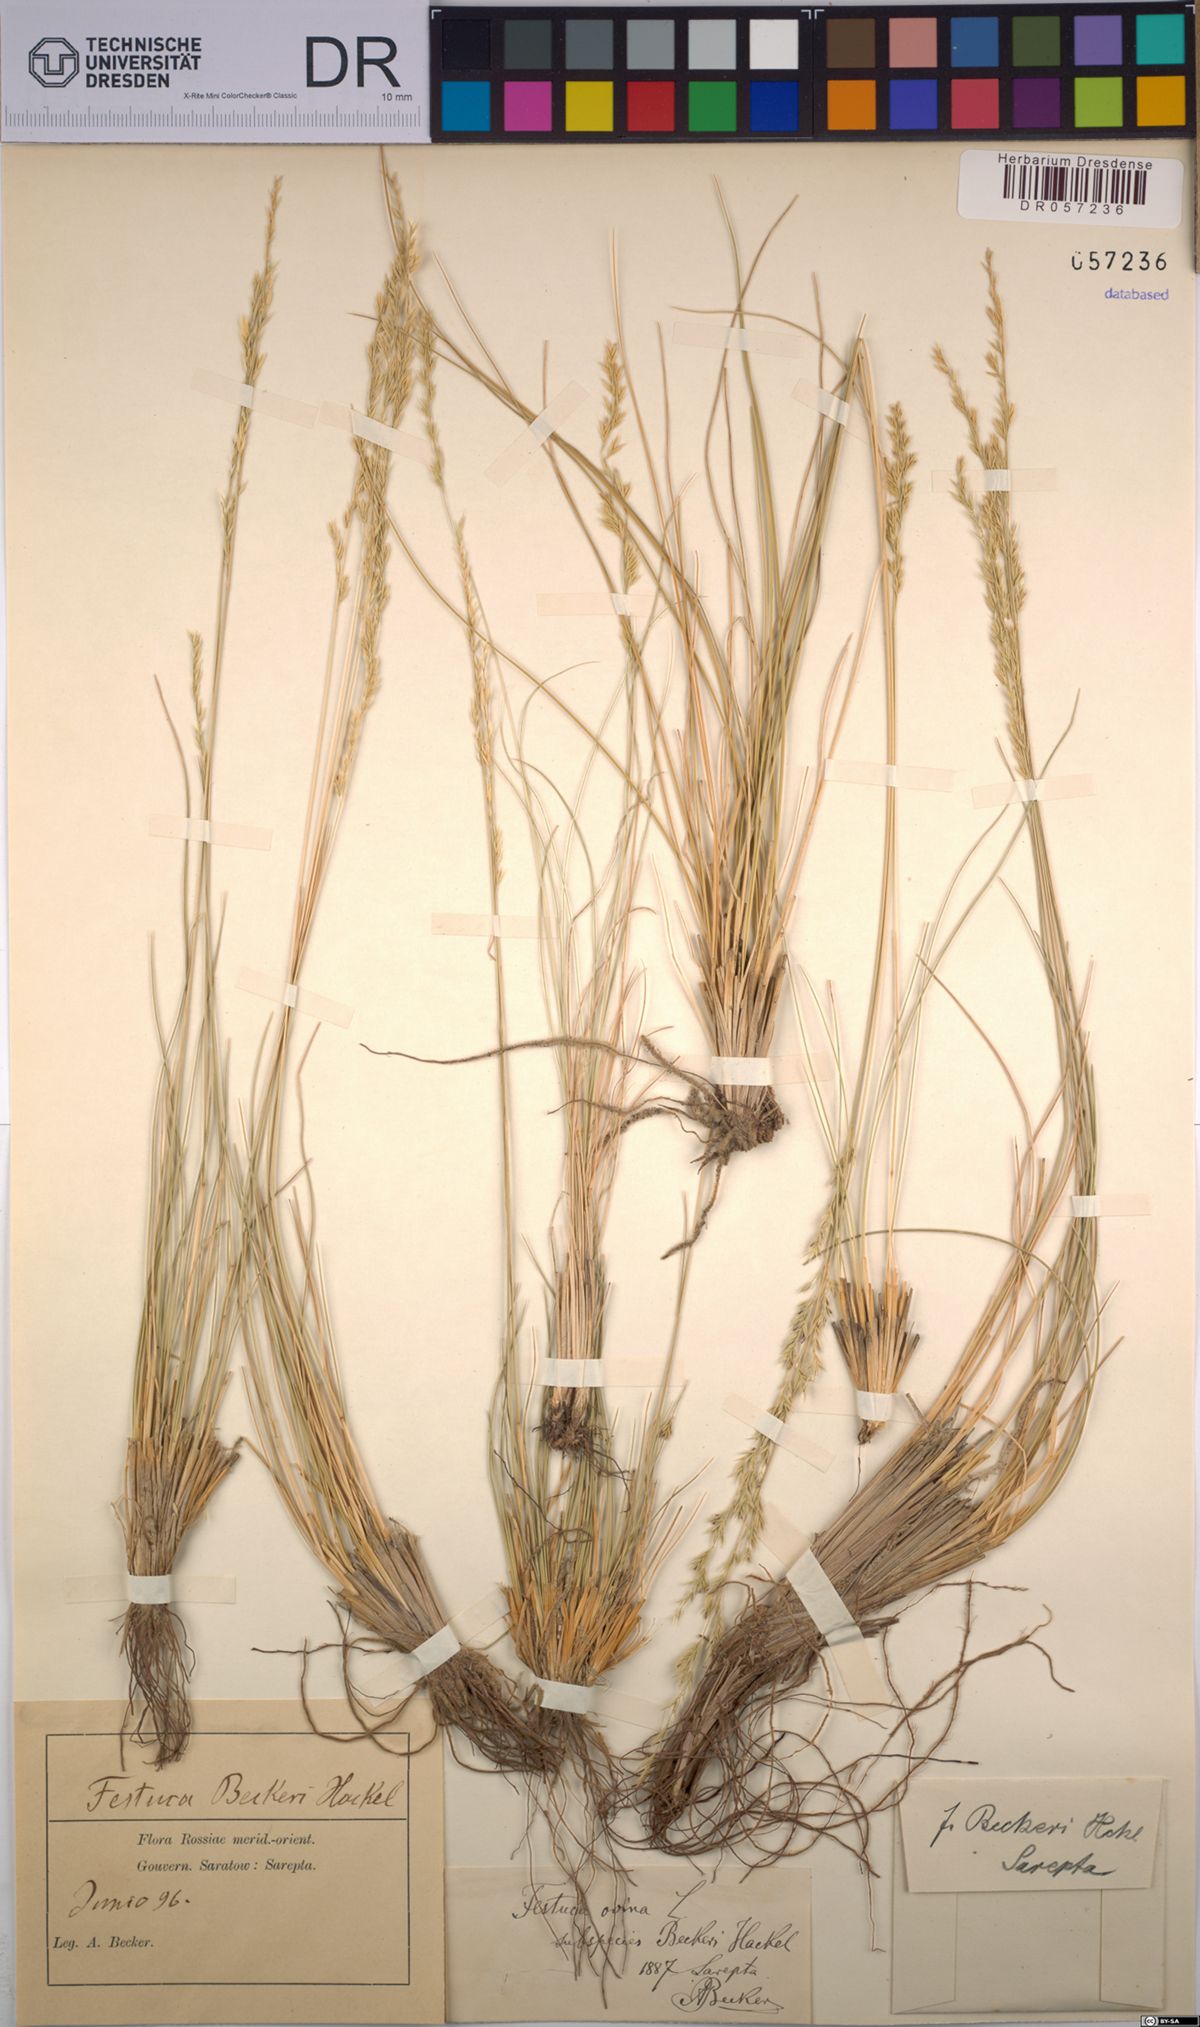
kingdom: Plantae
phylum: Tracheophyta
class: Liliopsida
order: Poales
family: Poaceae
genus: Festuca
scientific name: Festuca beckeri
